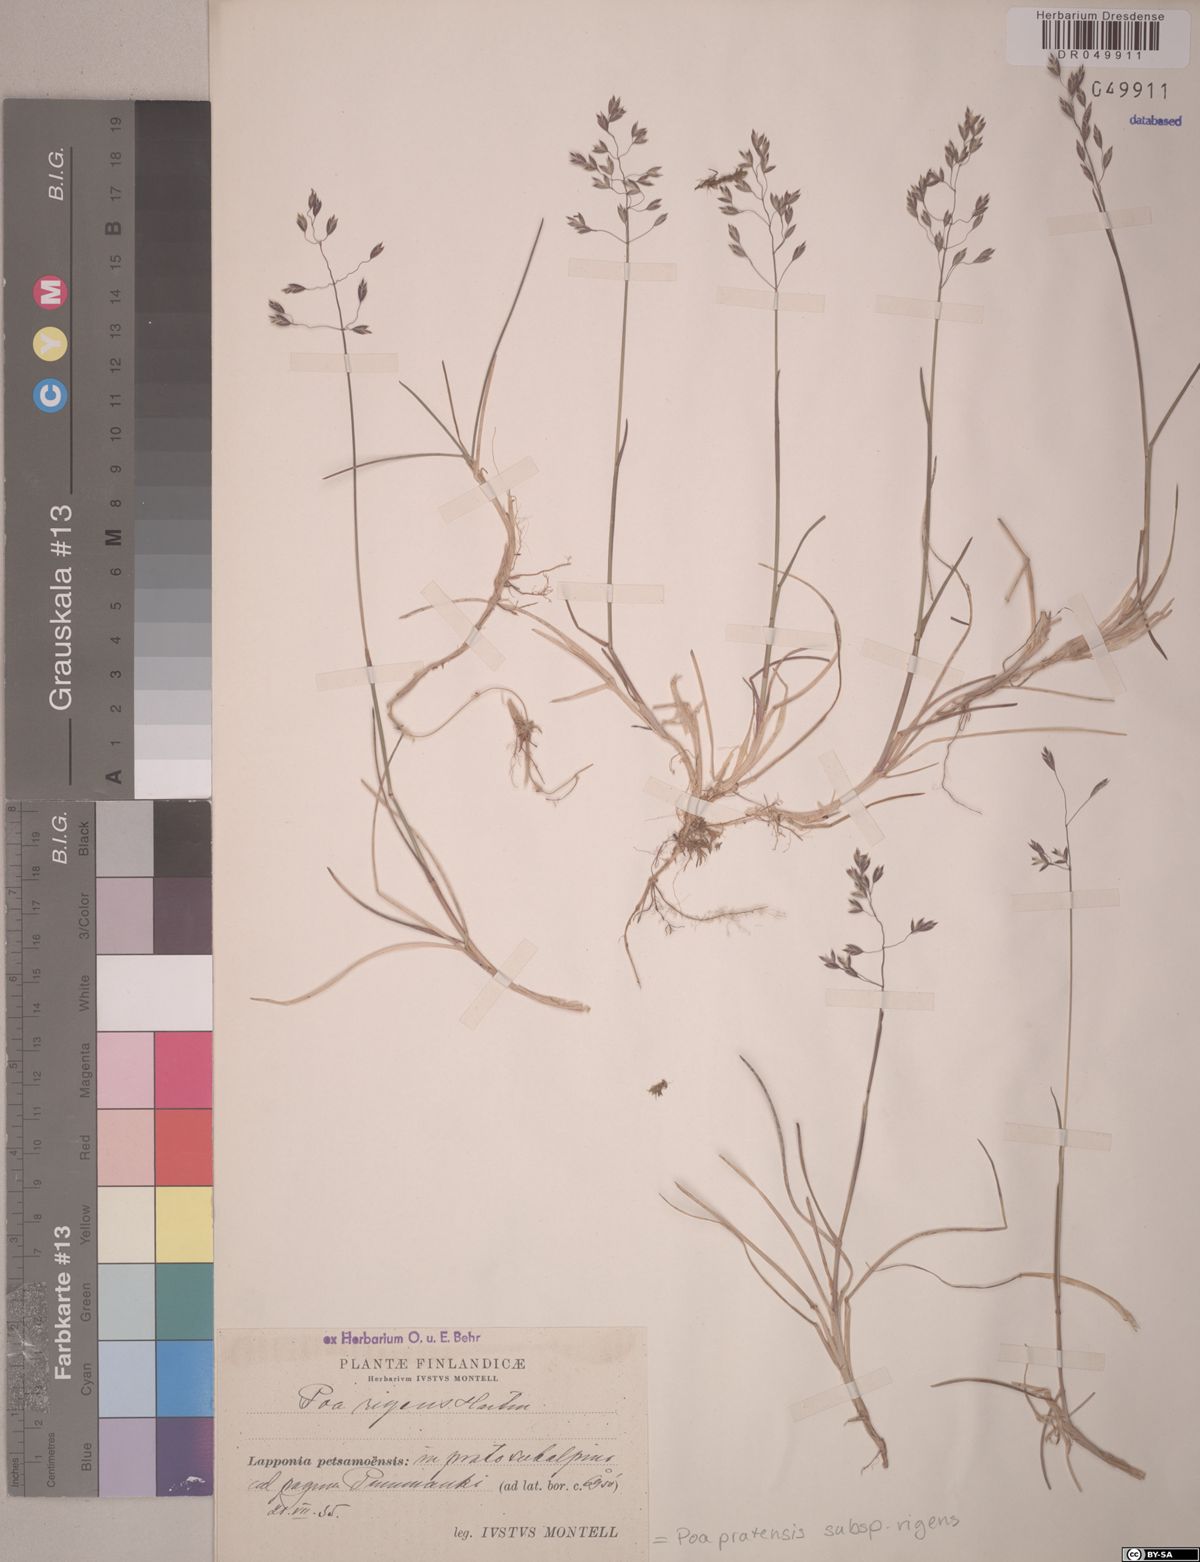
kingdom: Plantae
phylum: Tracheophyta
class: Liliopsida
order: Poales
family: Poaceae
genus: Poa
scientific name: Poa alpigena
